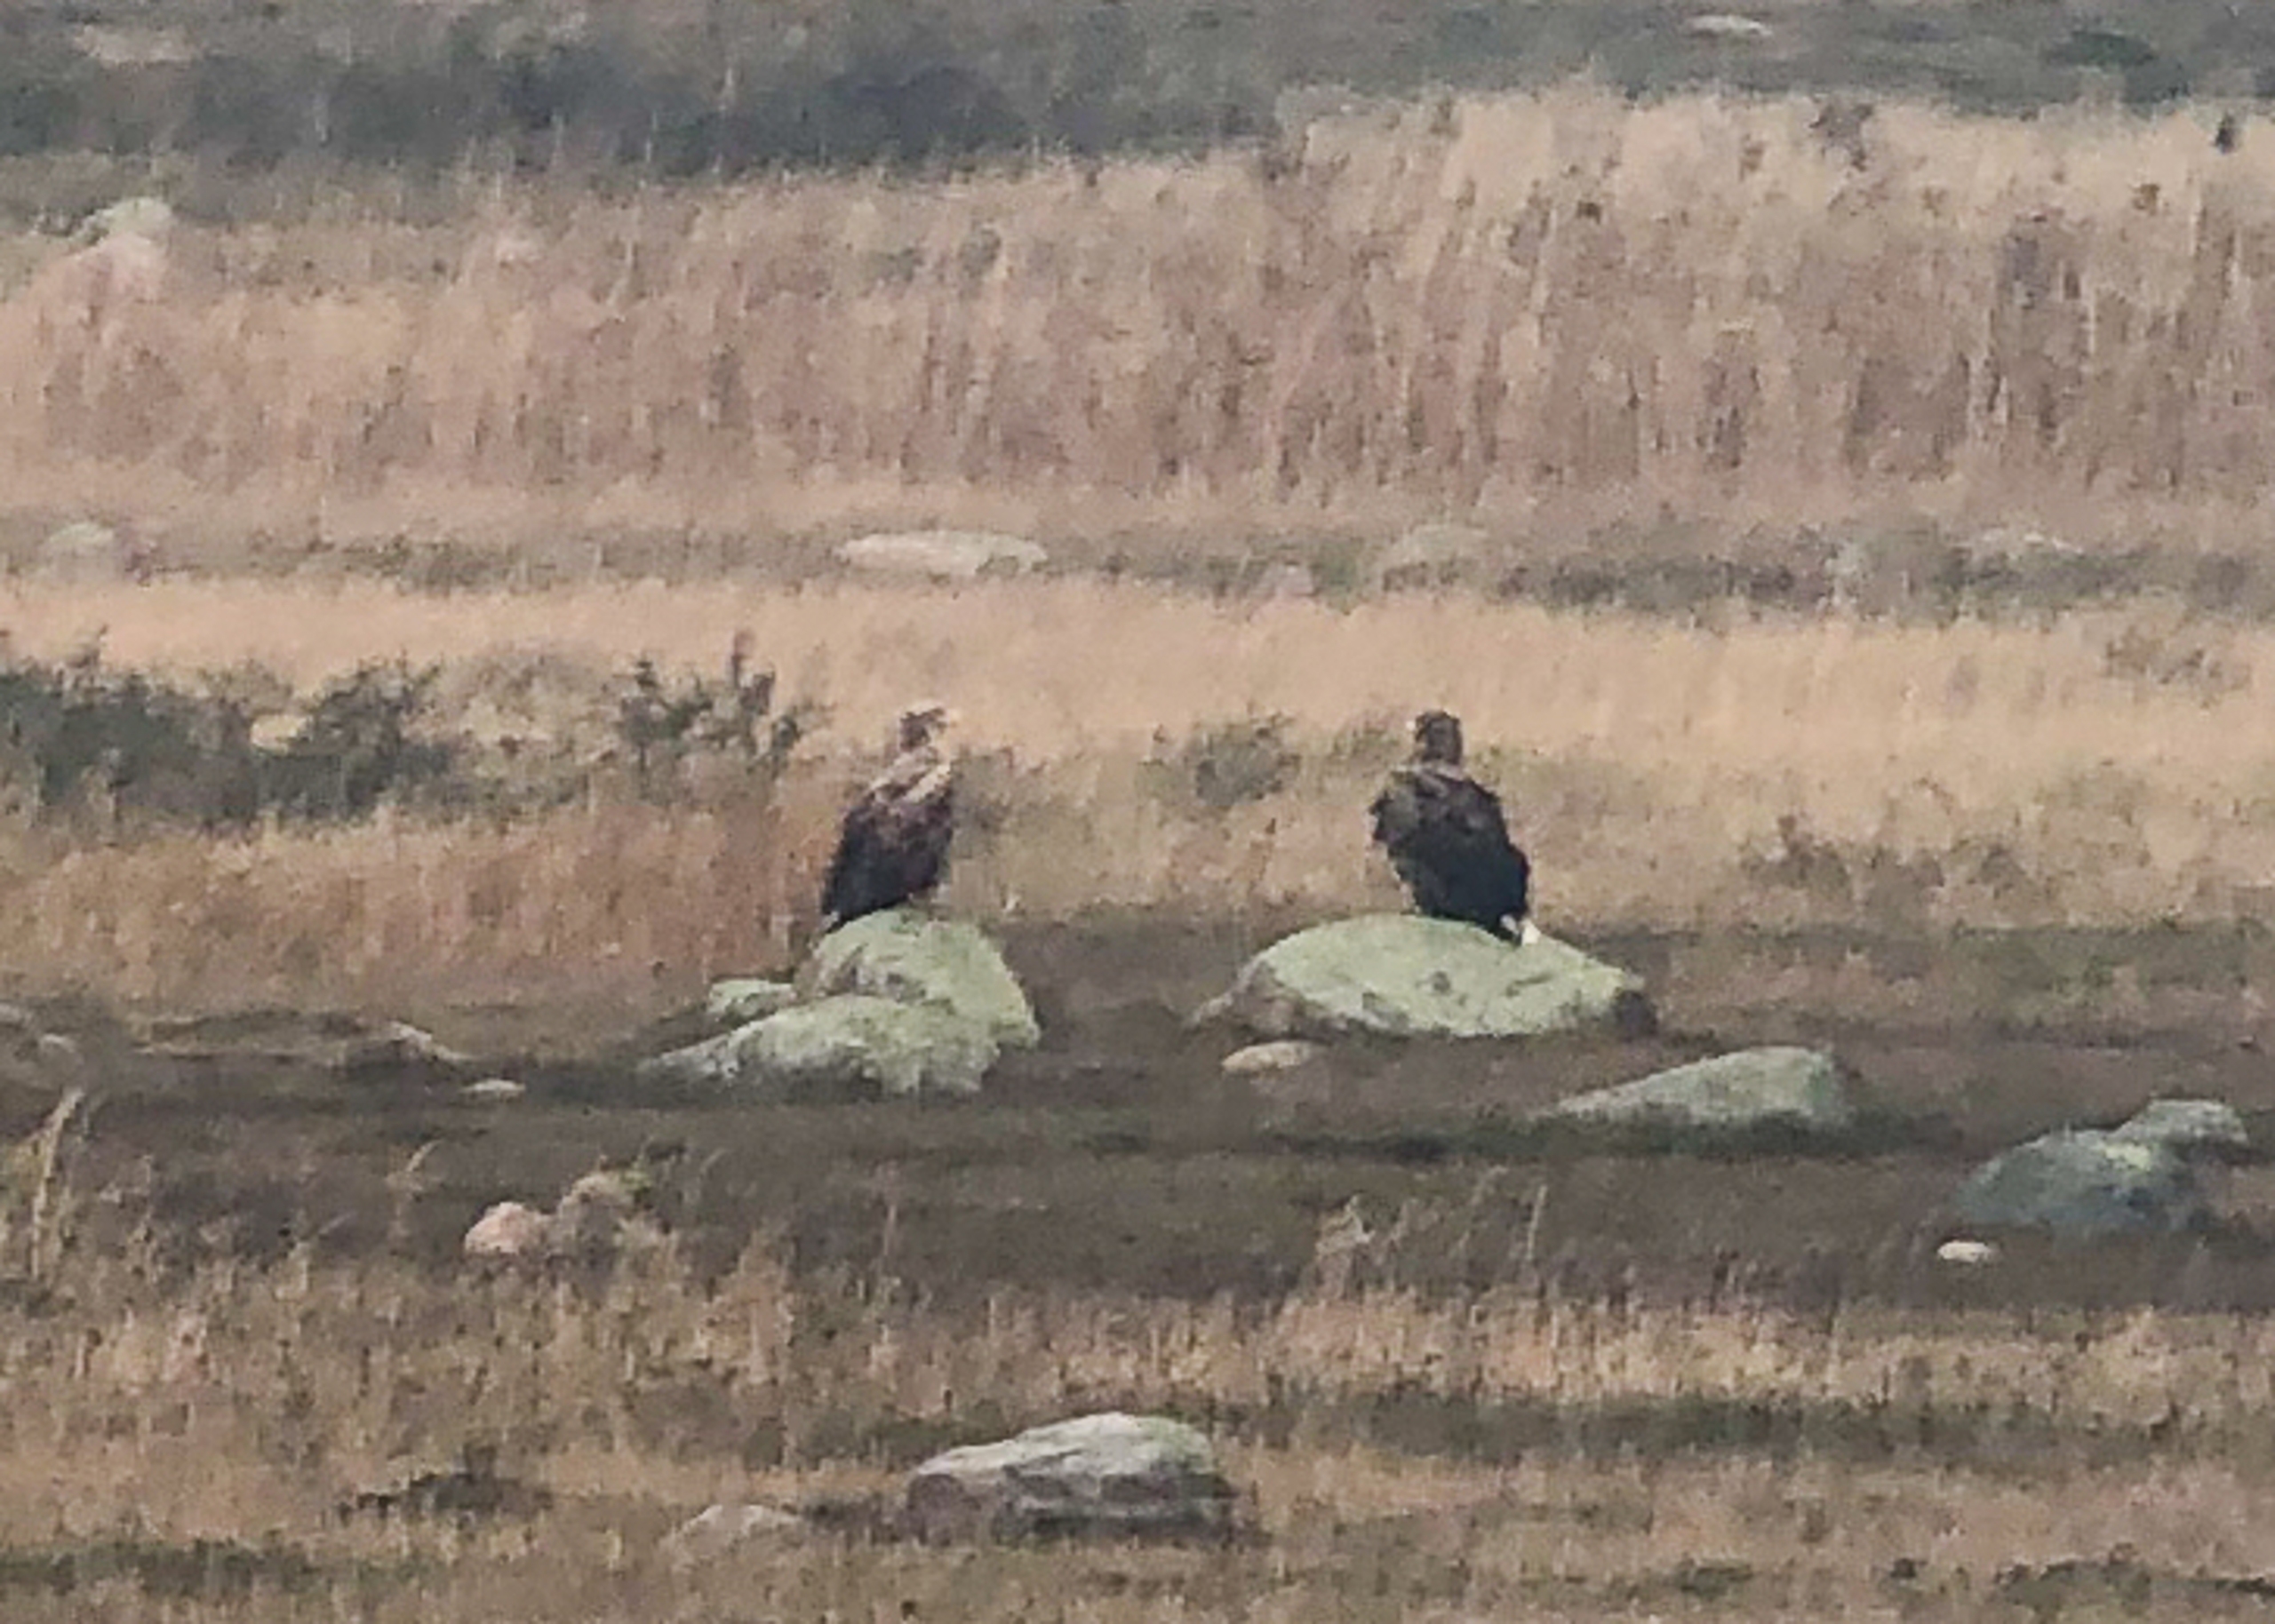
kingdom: Animalia
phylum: Chordata
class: Aves
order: Accipitriformes
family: Accipitridae
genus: Haliaeetus
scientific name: Haliaeetus albicilla
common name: Havørn
